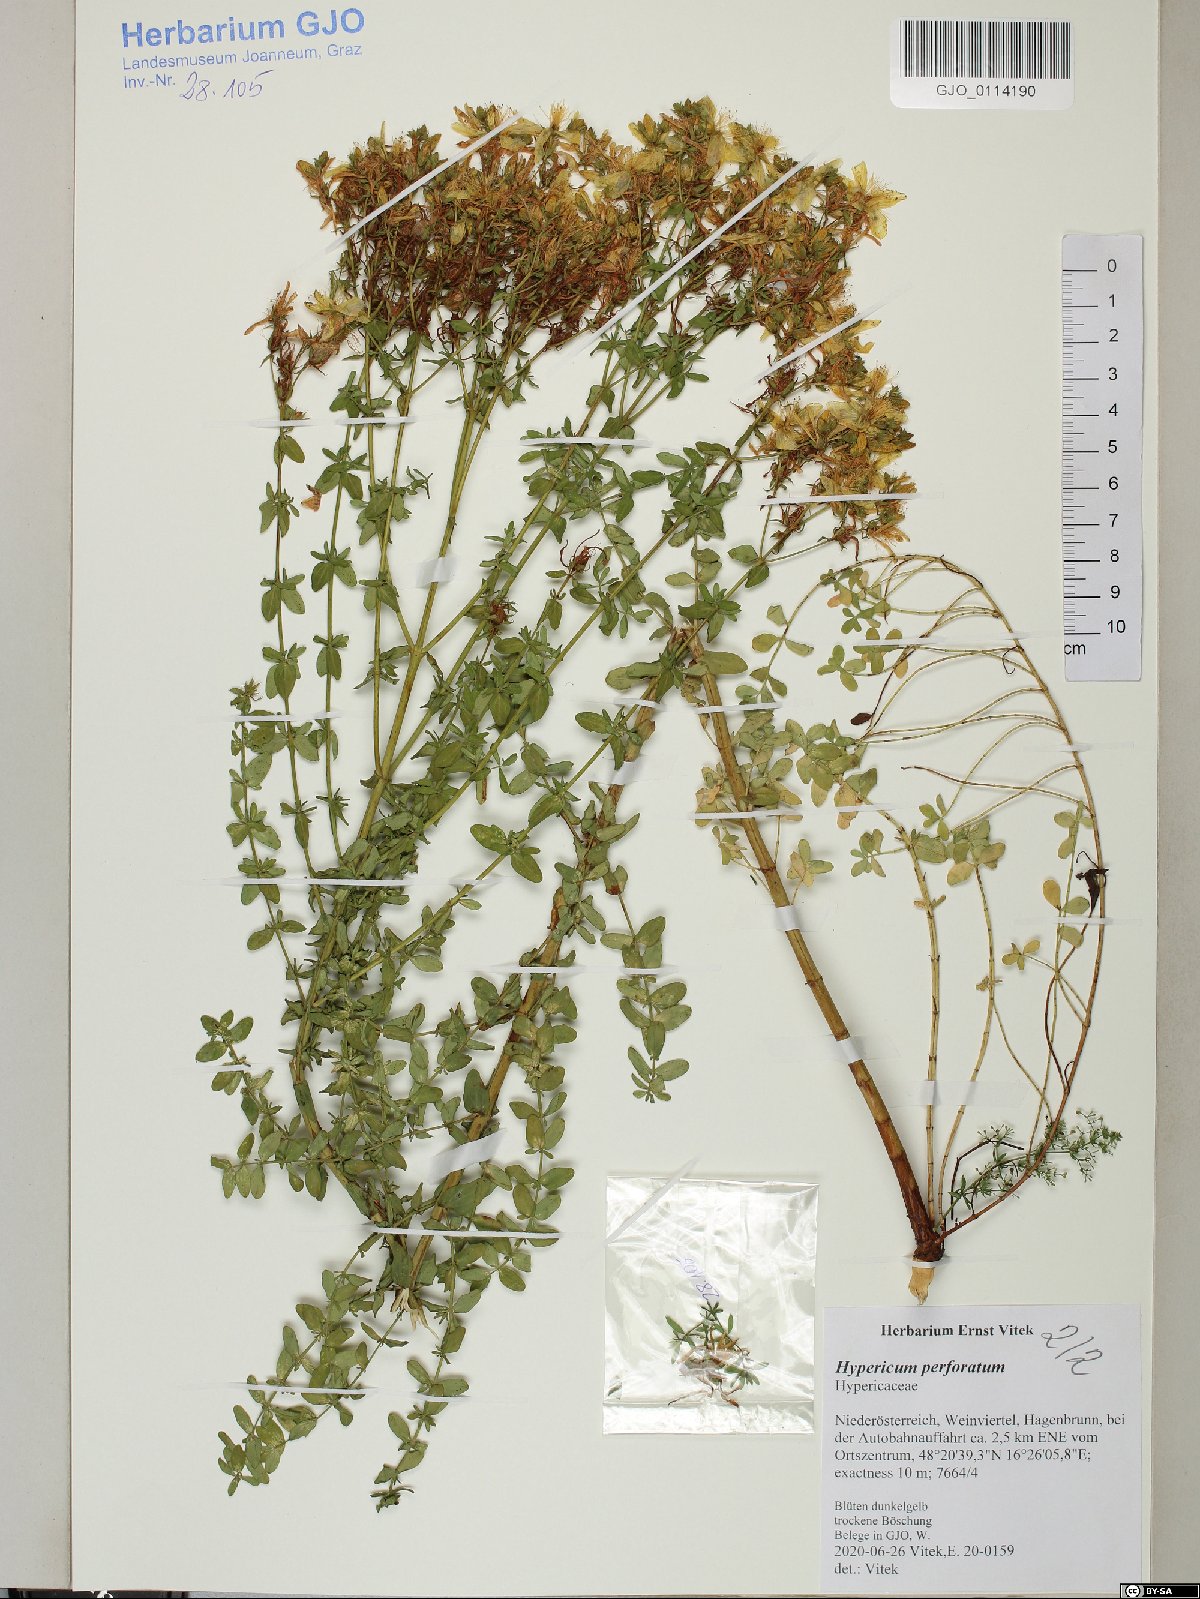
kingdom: Plantae
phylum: Tracheophyta
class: Magnoliopsida
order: Malpighiales
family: Hypericaceae
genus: Hypericum
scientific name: Hypericum perforatum
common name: Common st. johnswort
